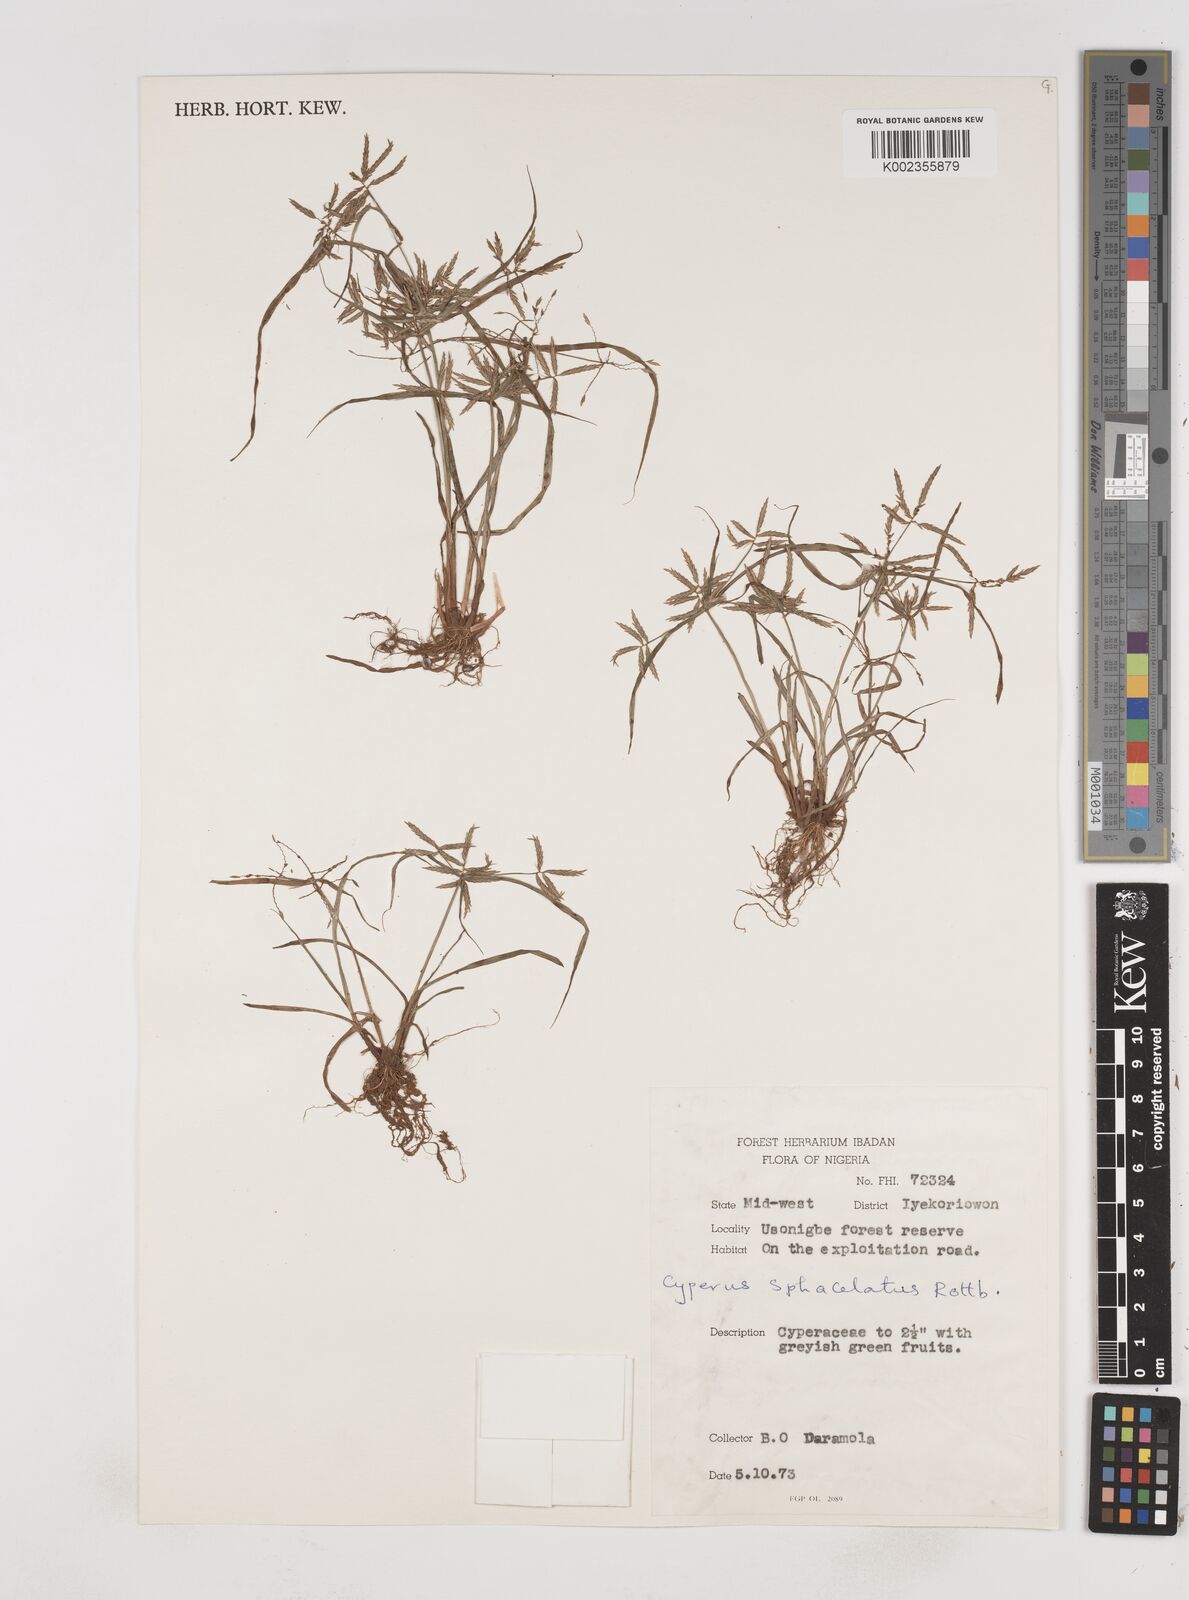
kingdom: Plantae
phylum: Tracheophyta
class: Liliopsida
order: Poales
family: Cyperaceae
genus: Cyperus
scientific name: Cyperus sphacelatus
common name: Roadside flatsedge
